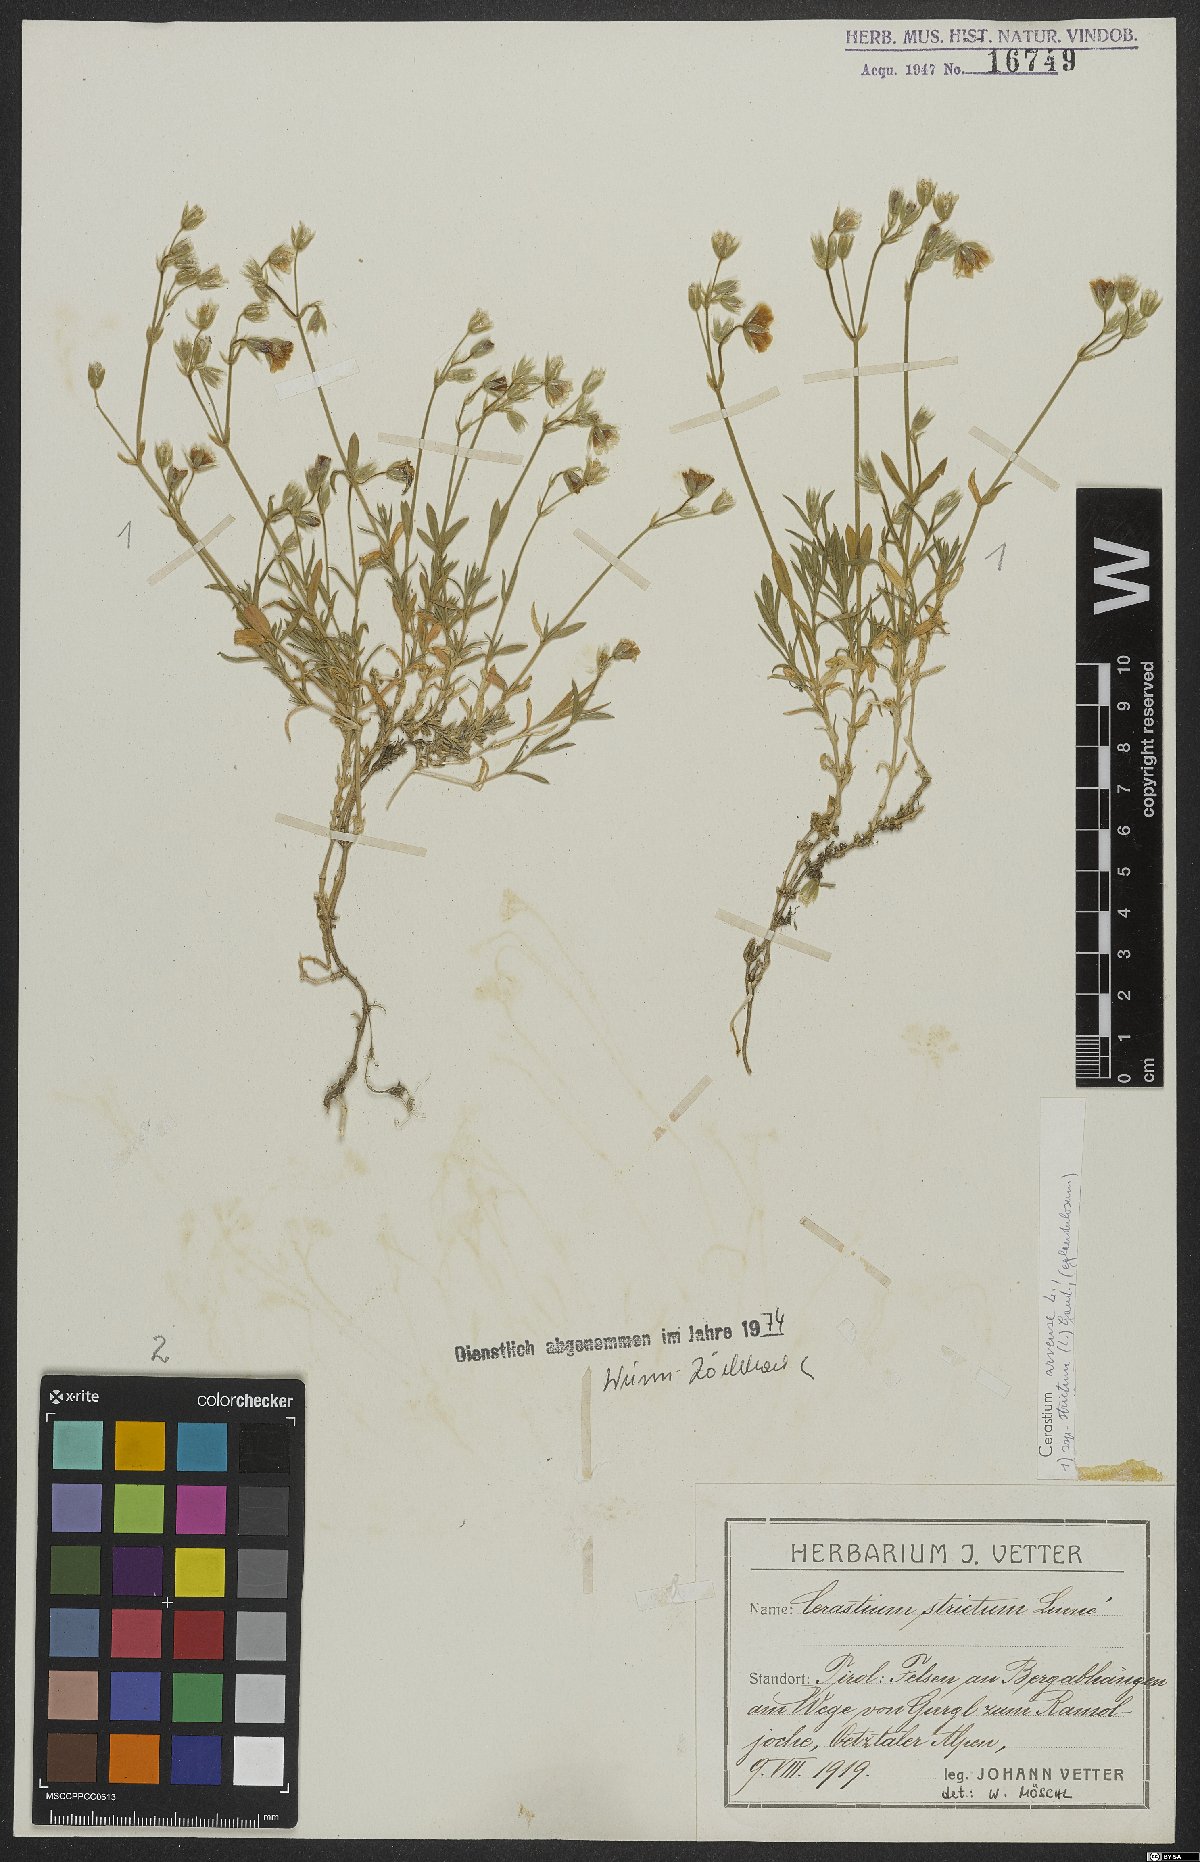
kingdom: Plantae
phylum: Tracheophyta
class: Magnoliopsida
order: Caryophyllales
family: Caryophyllaceae
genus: Cerastium
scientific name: Cerastium elongatum
